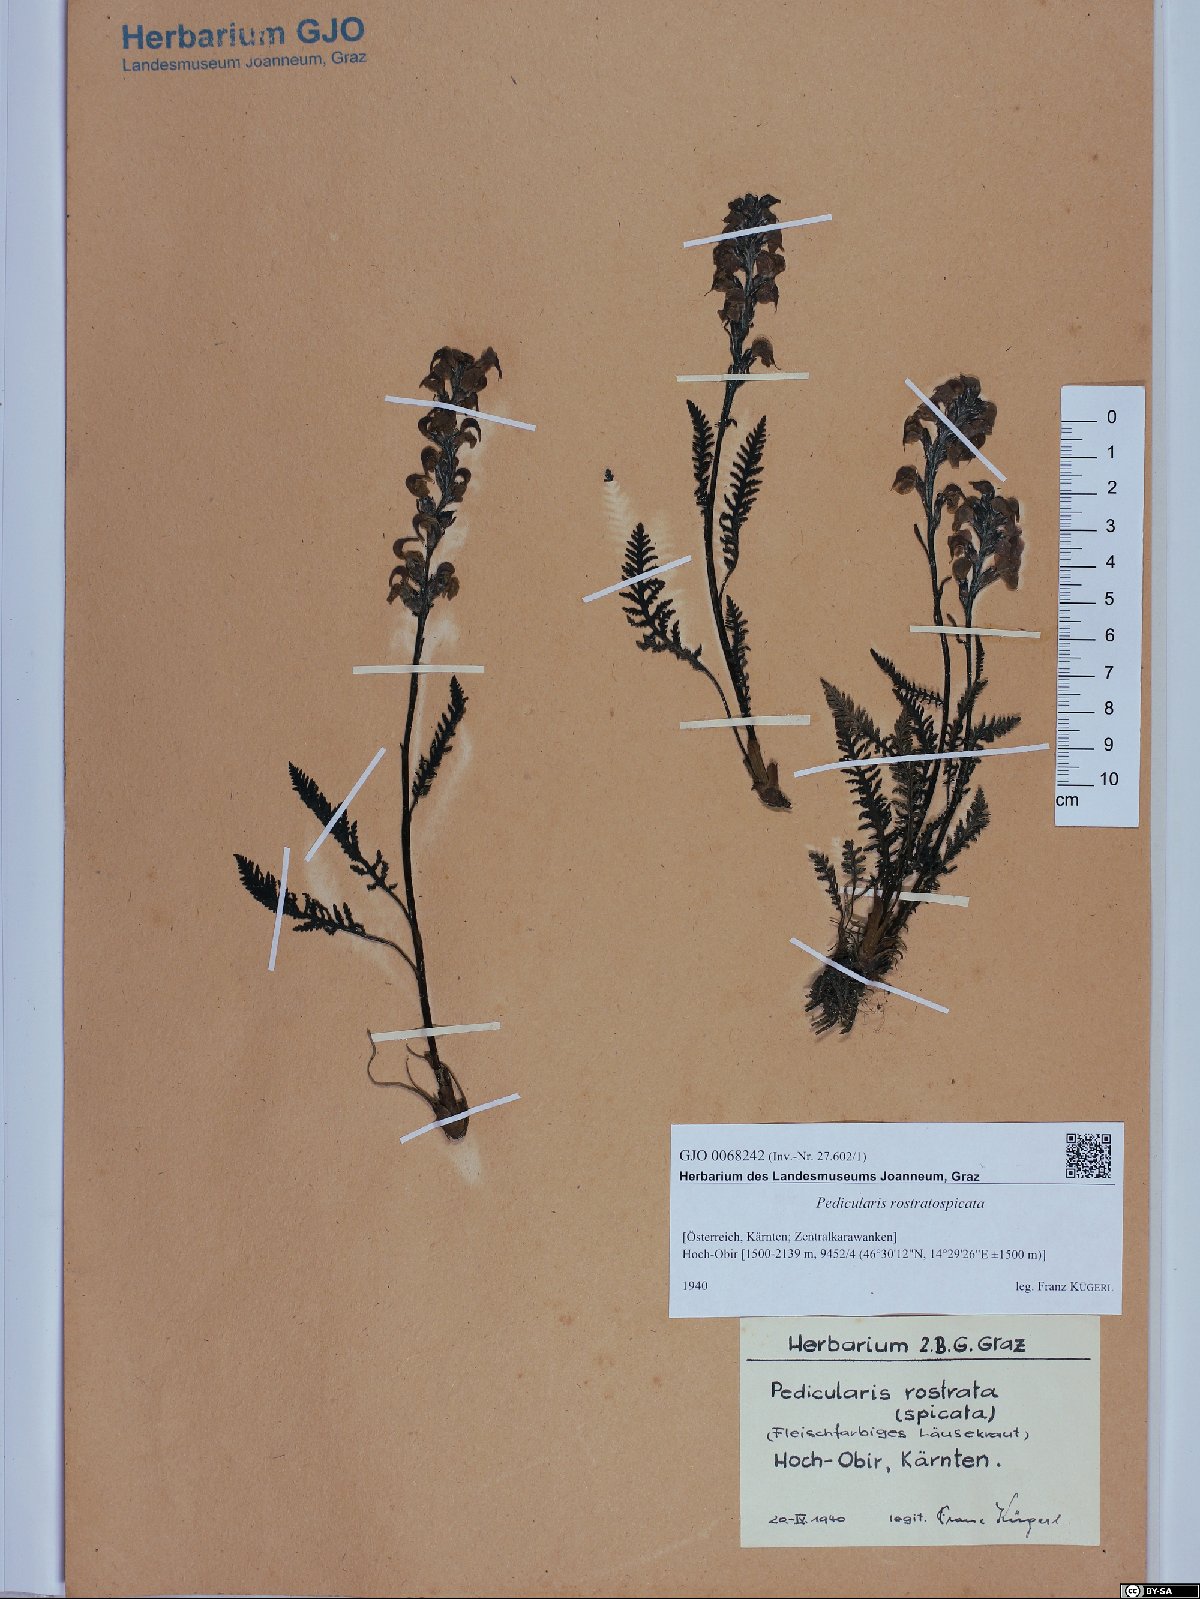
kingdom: Plantae
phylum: Tracheophyta
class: Magnoliopsida
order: Lamiales
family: Orobanchaceae
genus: Pedicularis
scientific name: Pedicularis rostratospicata
